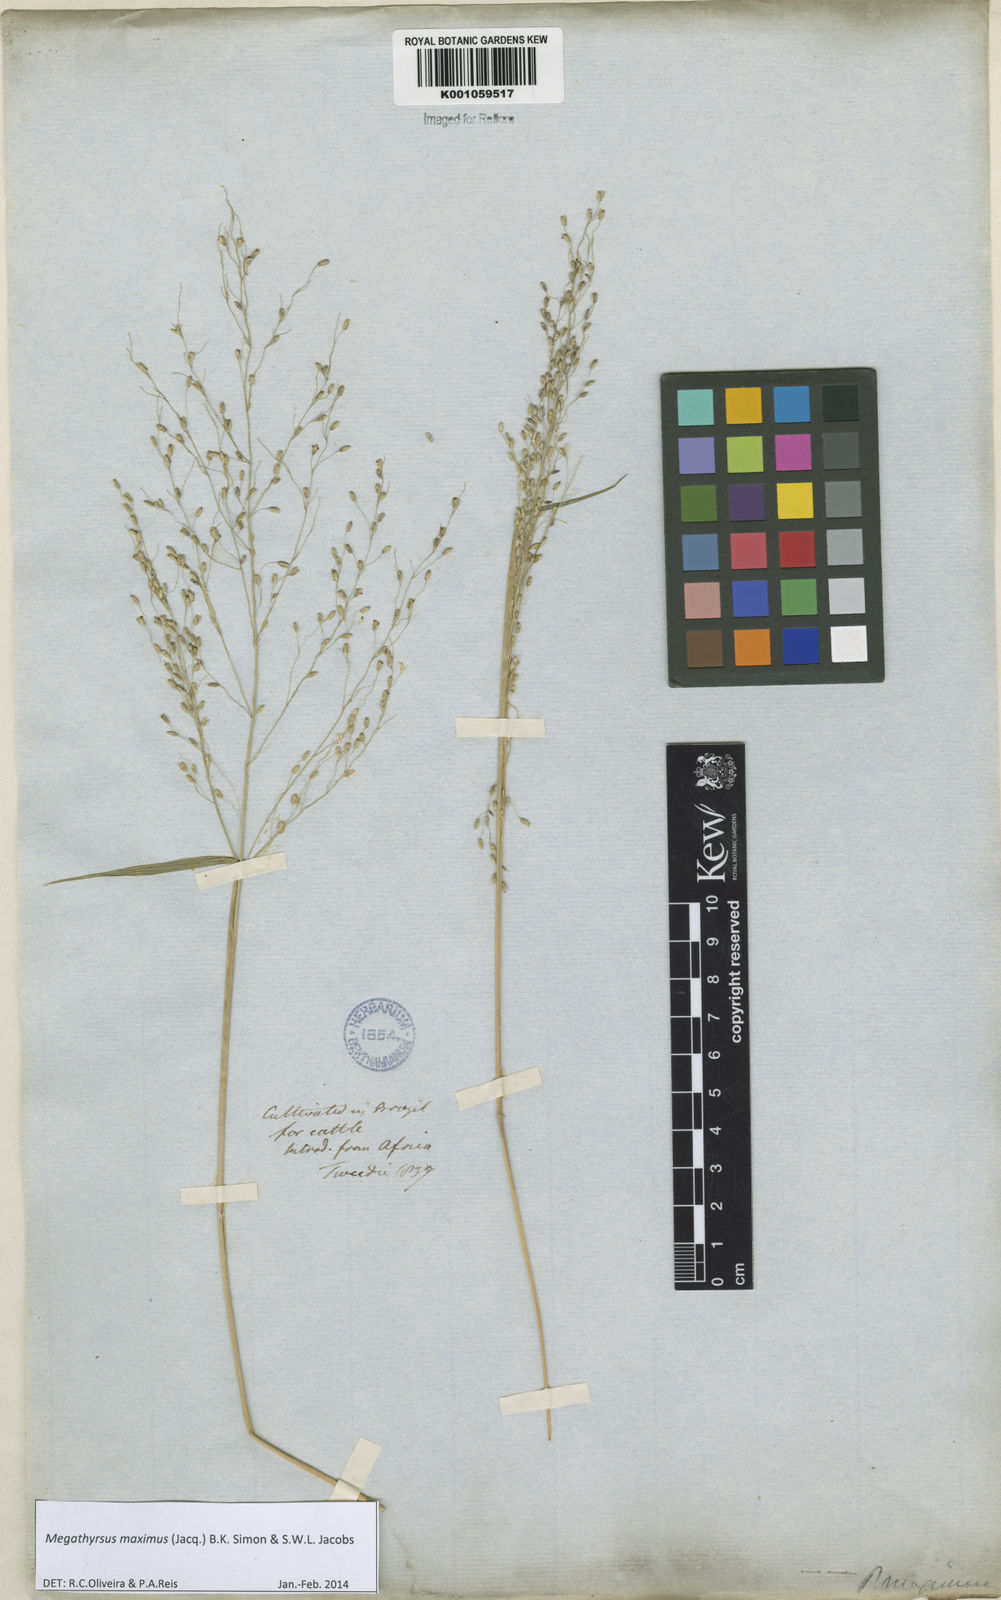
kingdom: Plantae
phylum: Tracheophyta
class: Liliopsida
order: Poales
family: Poaceae
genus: Megathyrsus
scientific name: Megathyrsus maximus
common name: Guineagrass
